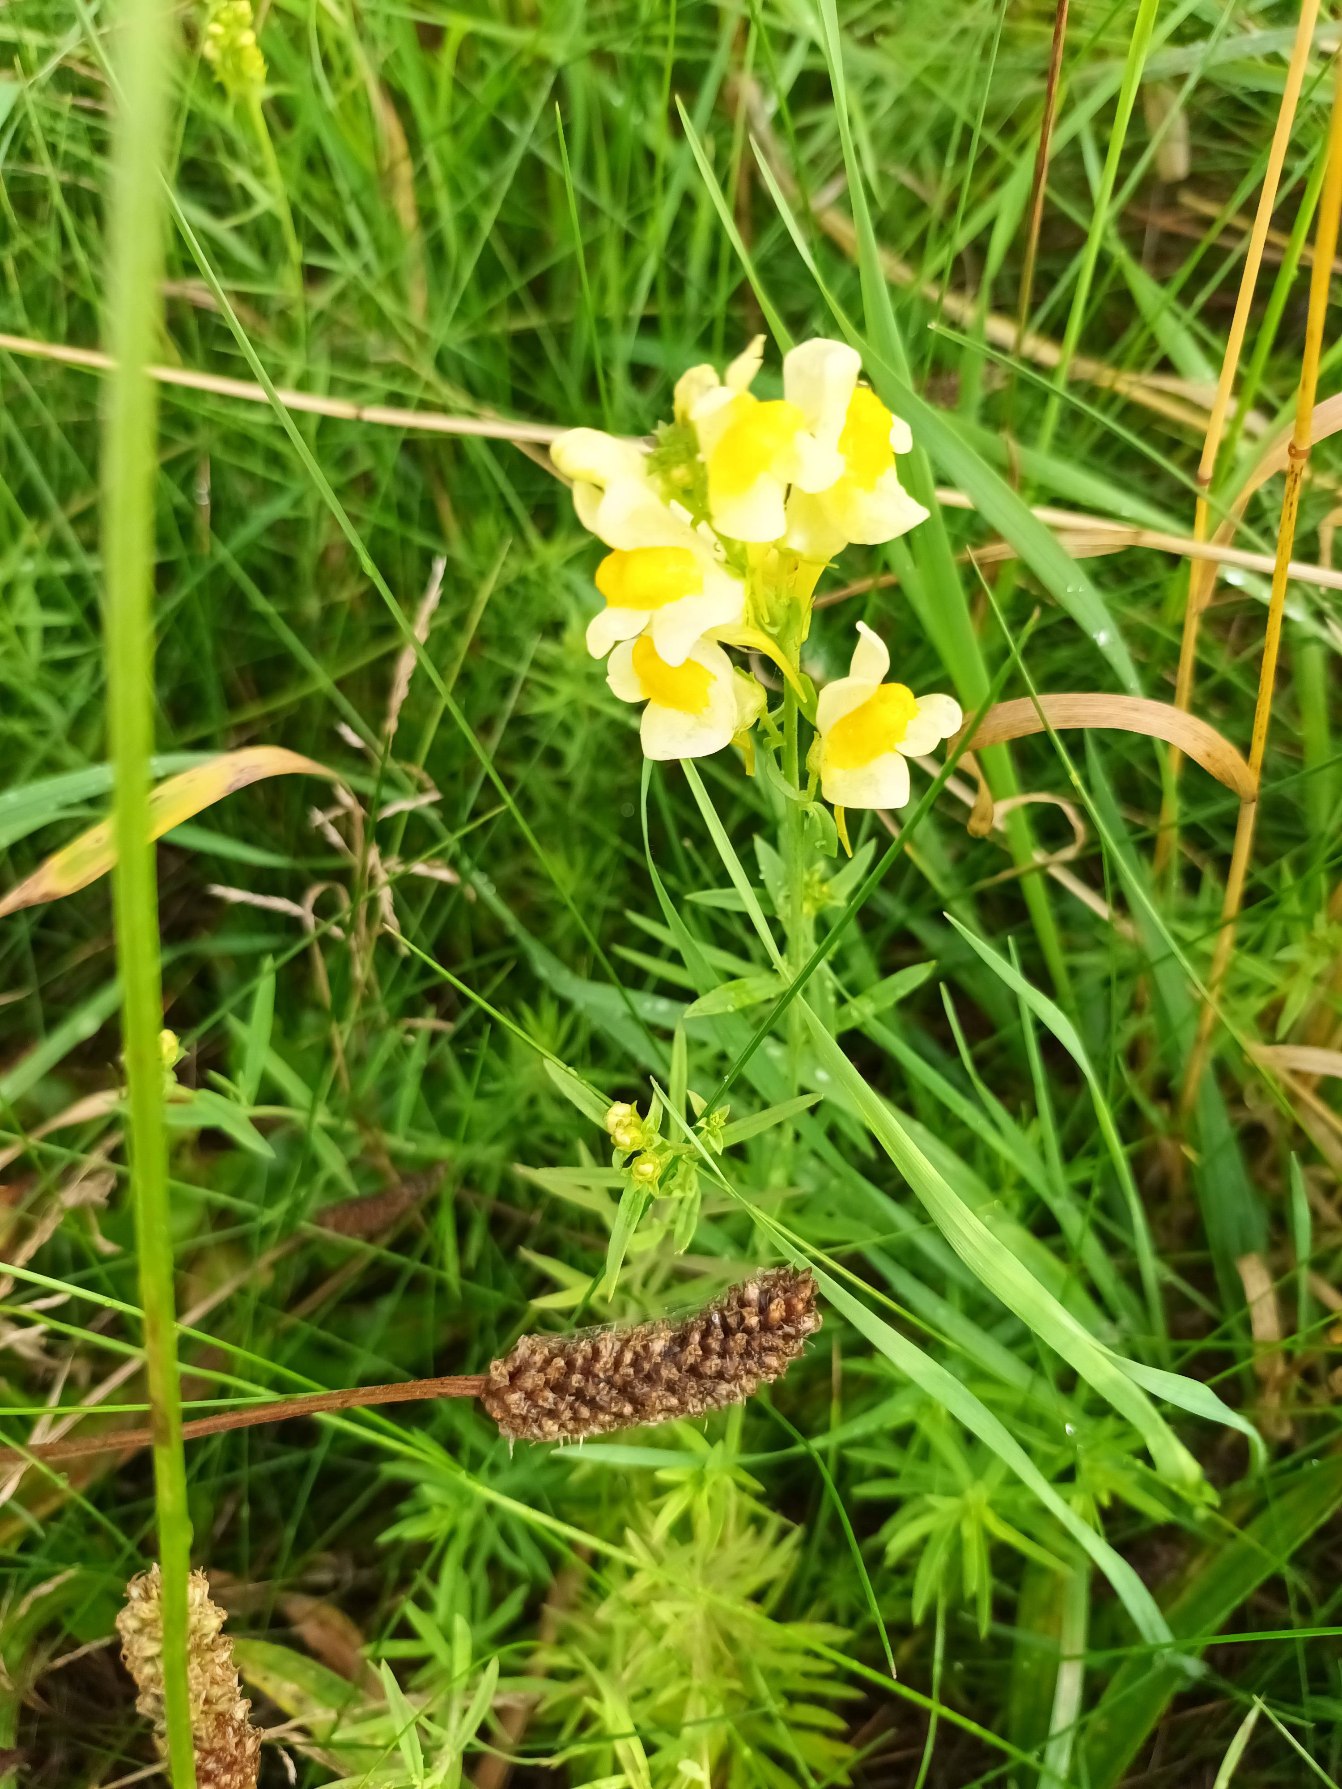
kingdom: Plantae
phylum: Tracheophyta
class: Magnoliopsida
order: Lamiales
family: Plantaginaceae
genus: Linaria
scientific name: Linaria vulgaris
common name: Almindelig torskemund
